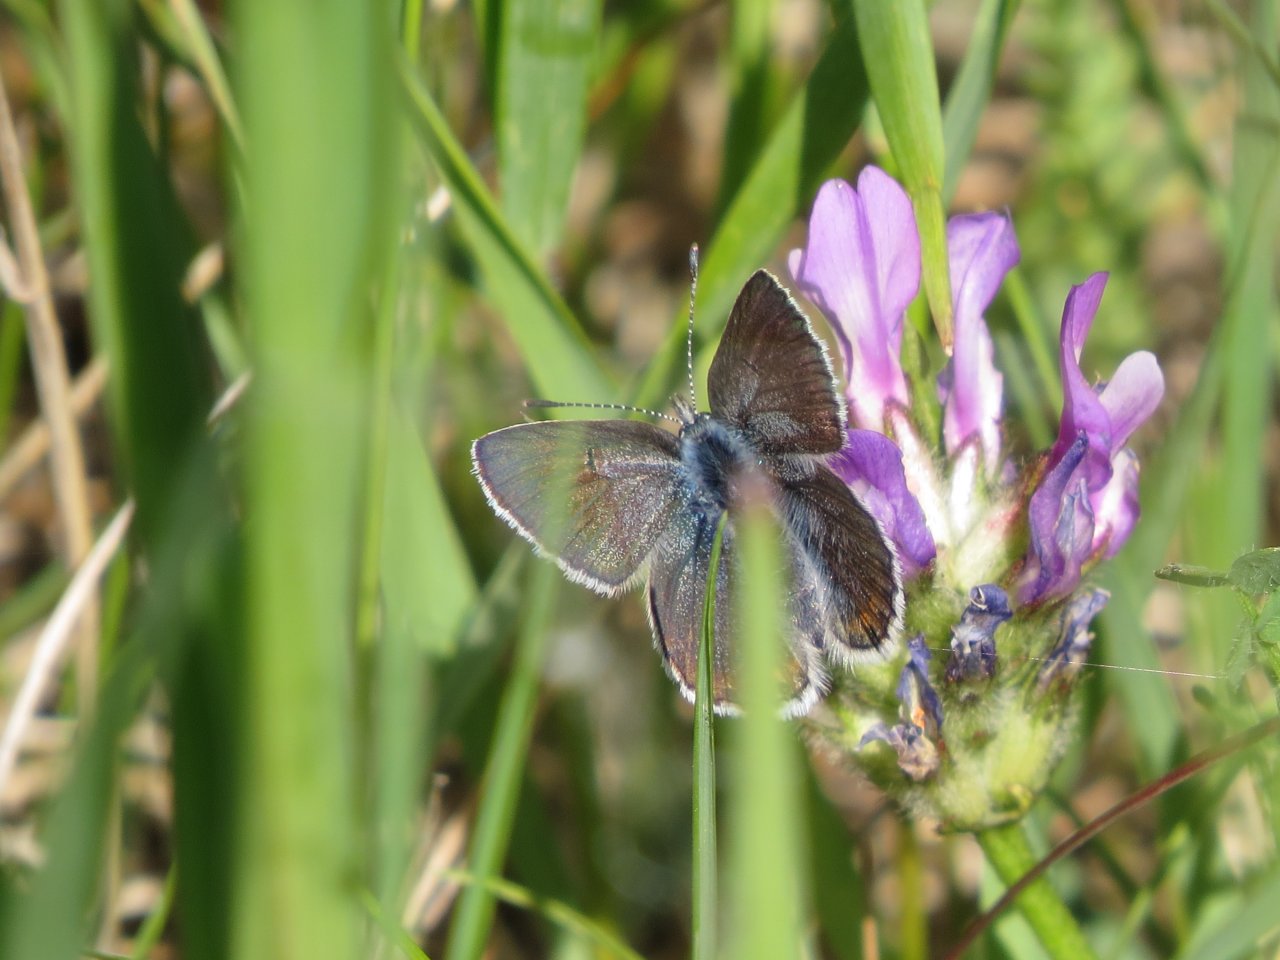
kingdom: Animalia
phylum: Arthropoda
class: Insecta
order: Lepidoptera
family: Lycaenidae
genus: Agriades
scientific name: Agriades glandon
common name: Arctic Blue
